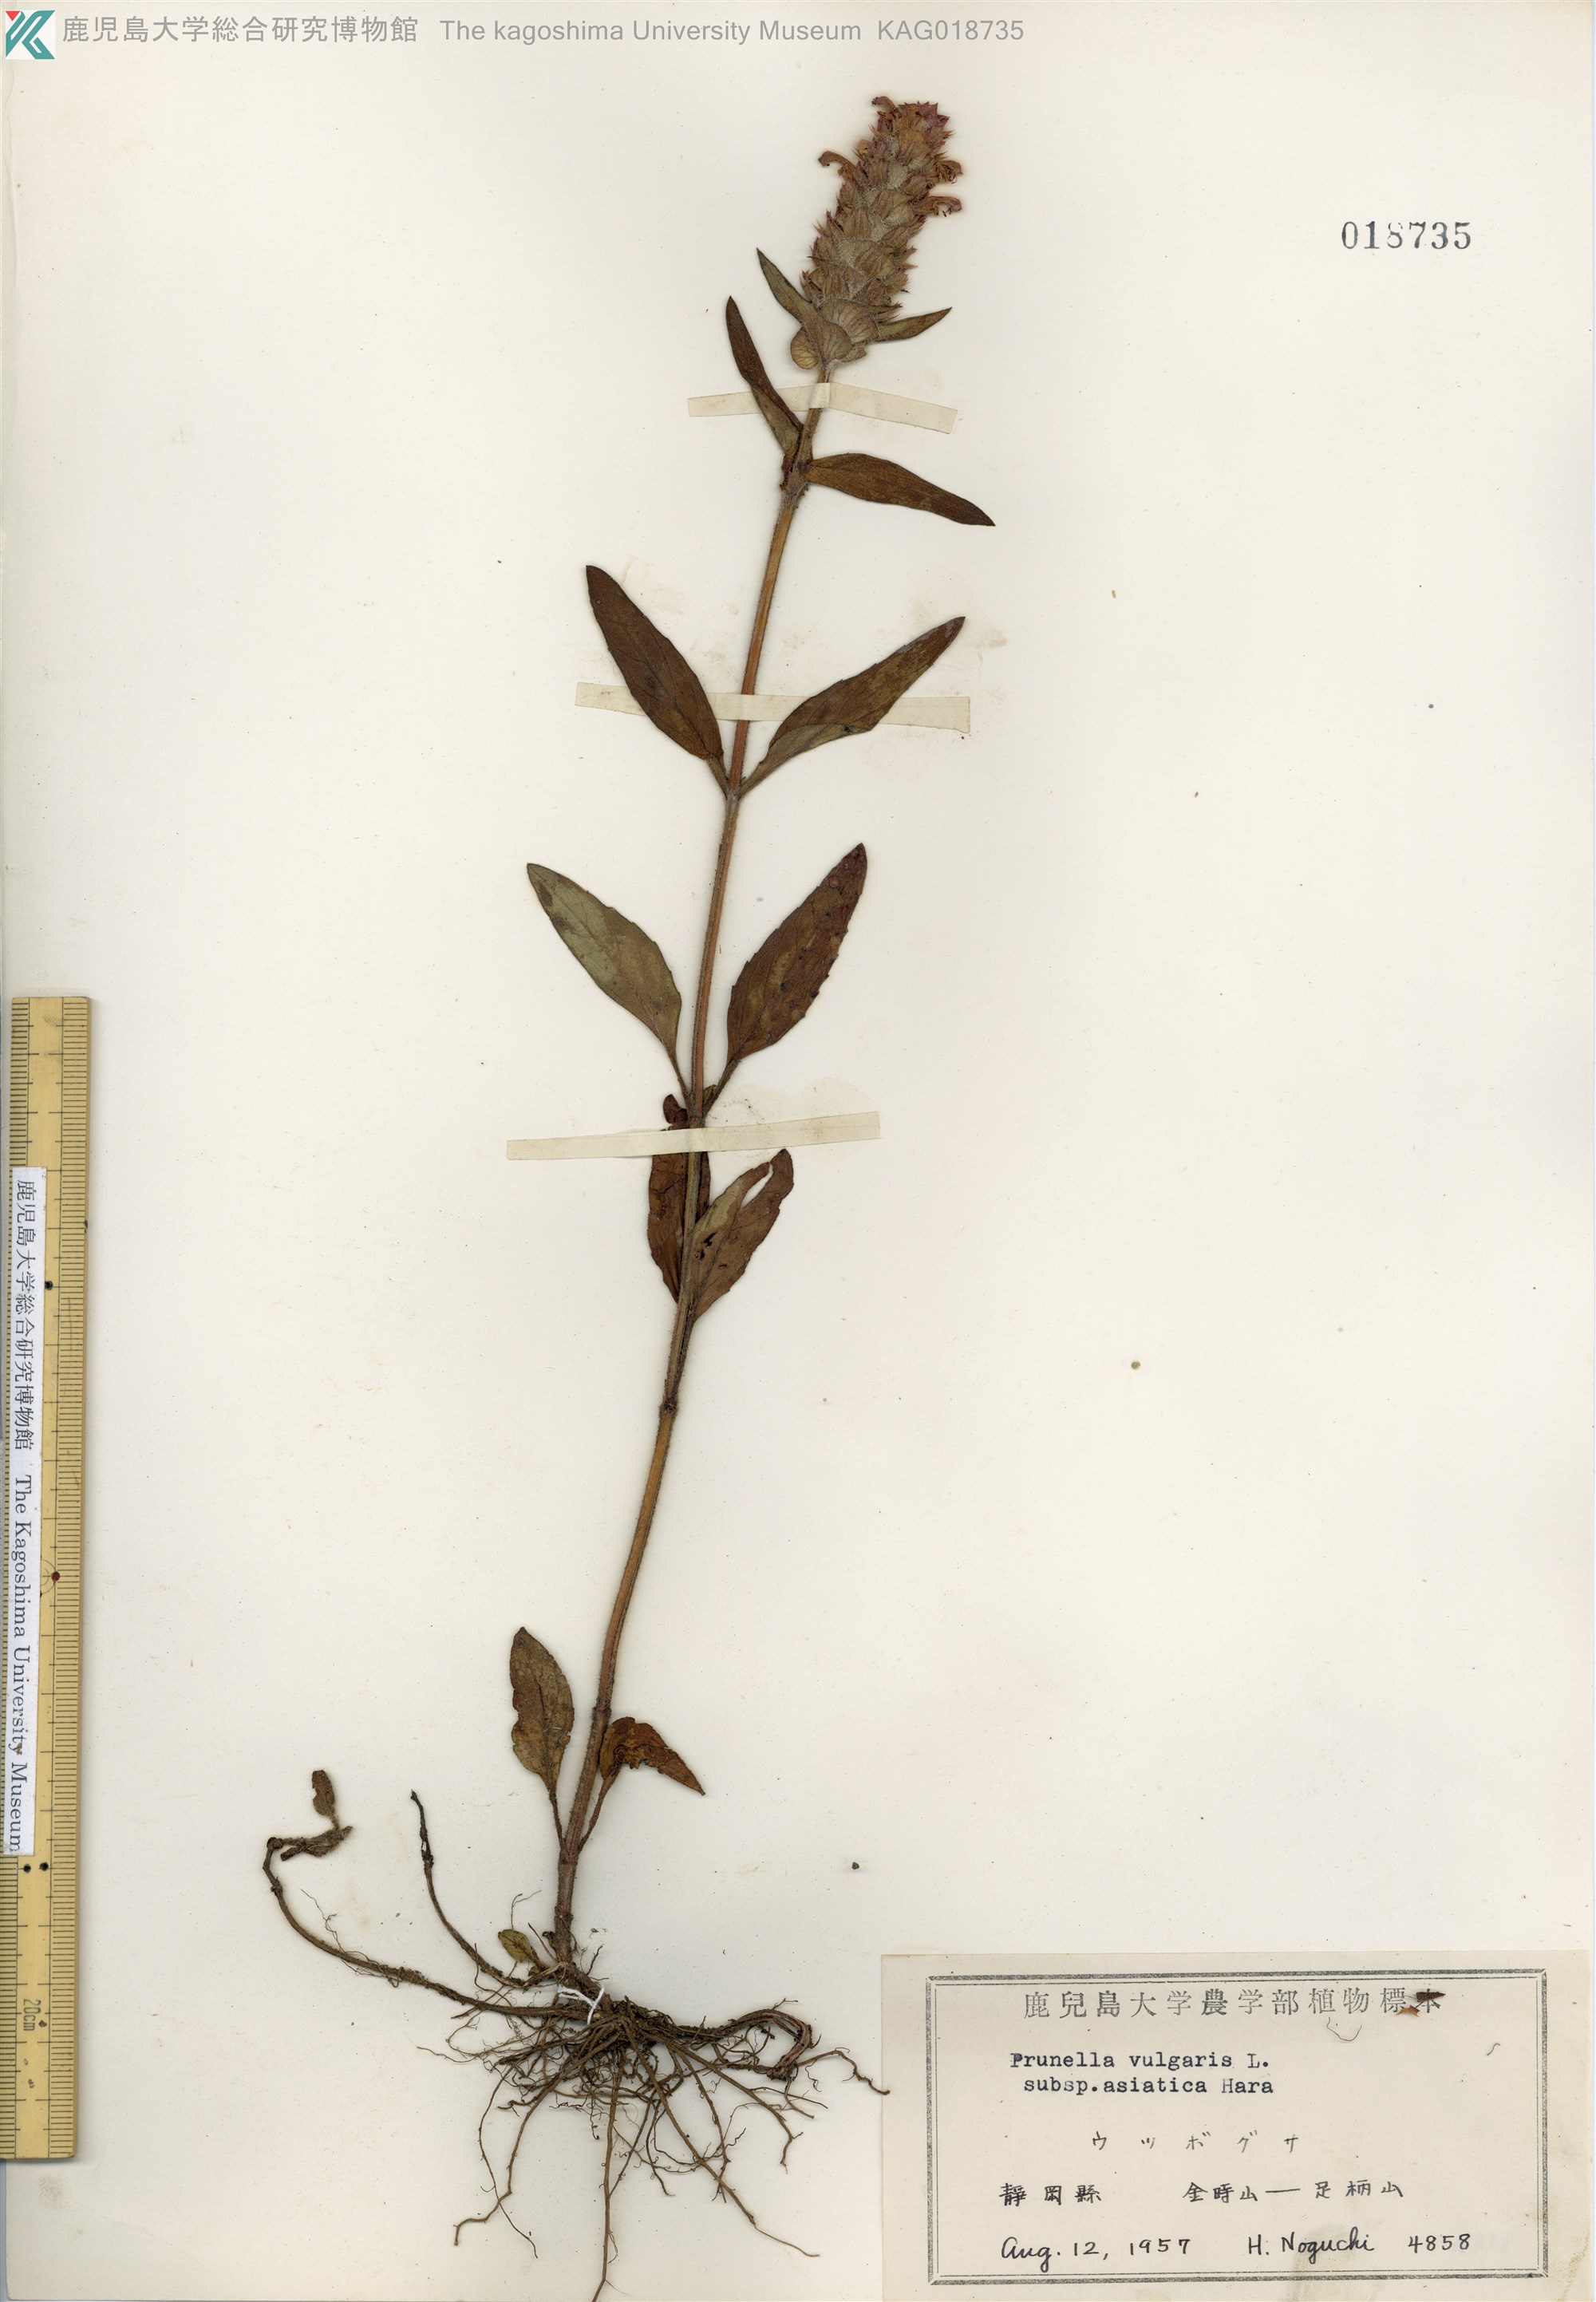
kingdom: Plantae
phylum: Tracheophyta
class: Magnoliopsida
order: Lamiales
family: Lamiaceae
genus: Prunella
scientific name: Prunella vulgaris
